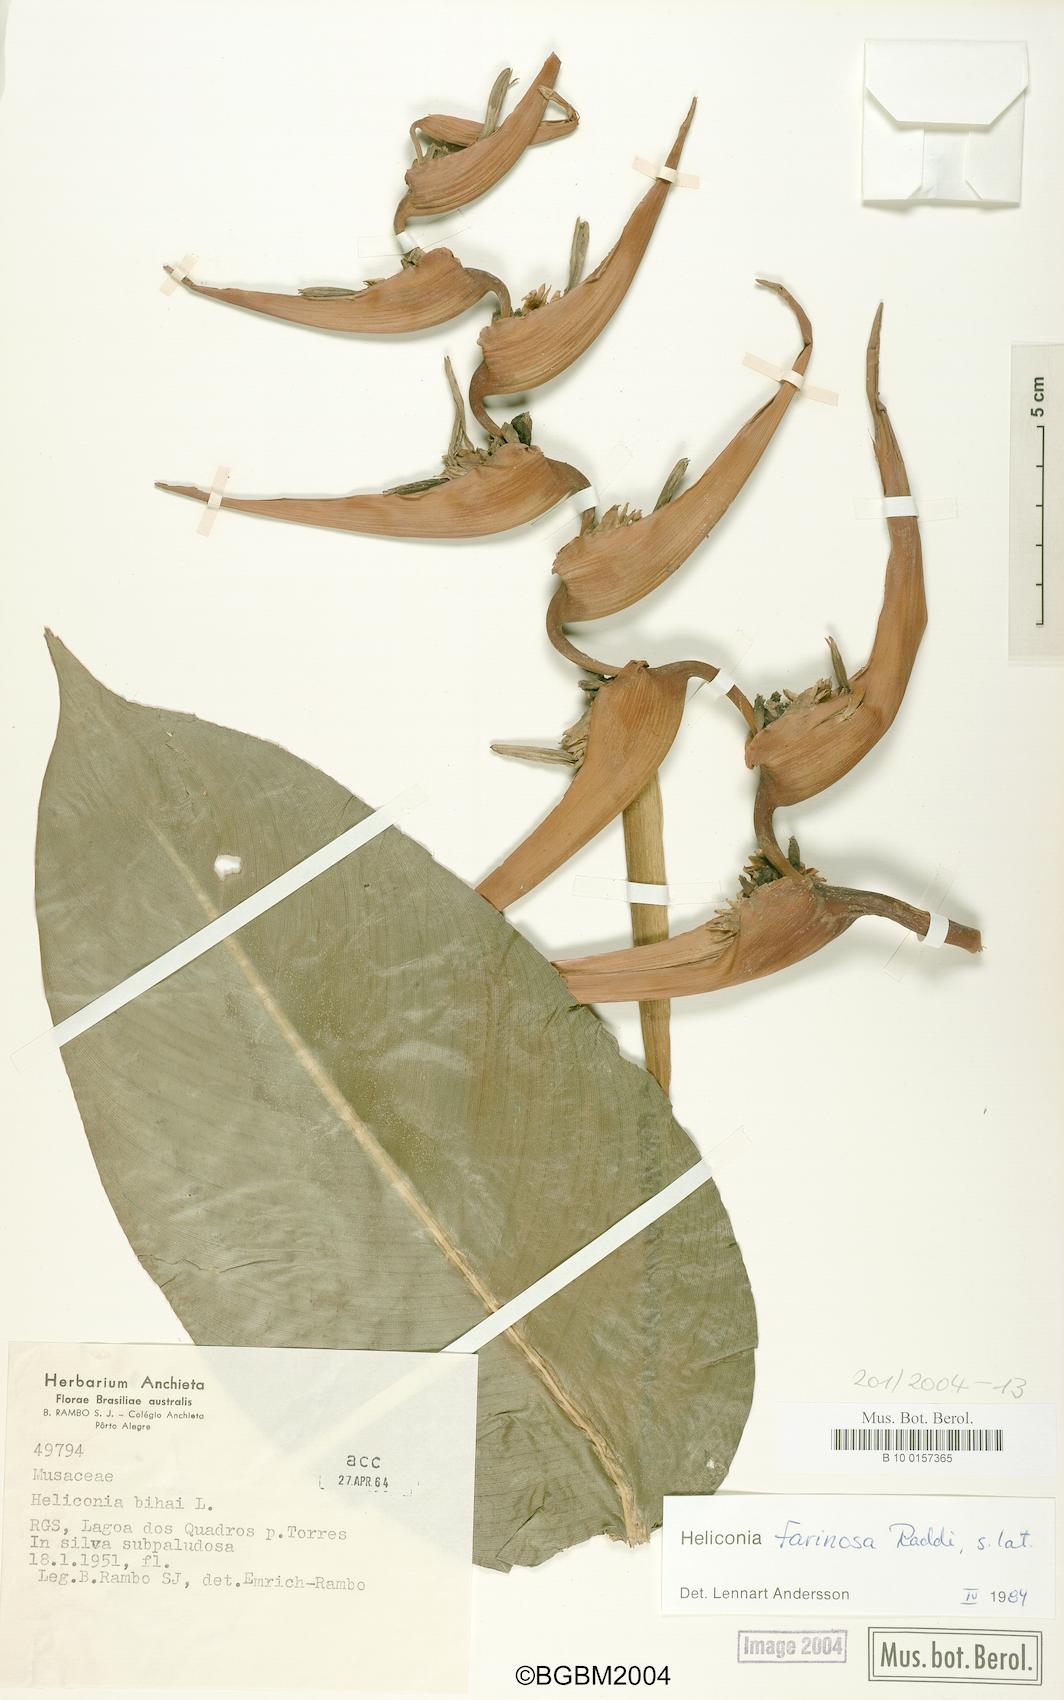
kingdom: Plantae
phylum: Tracheophyta
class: Liliopsida
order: Zingiberales
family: Heliconiaceae
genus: Heliconia
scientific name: Heliconia farinosa
